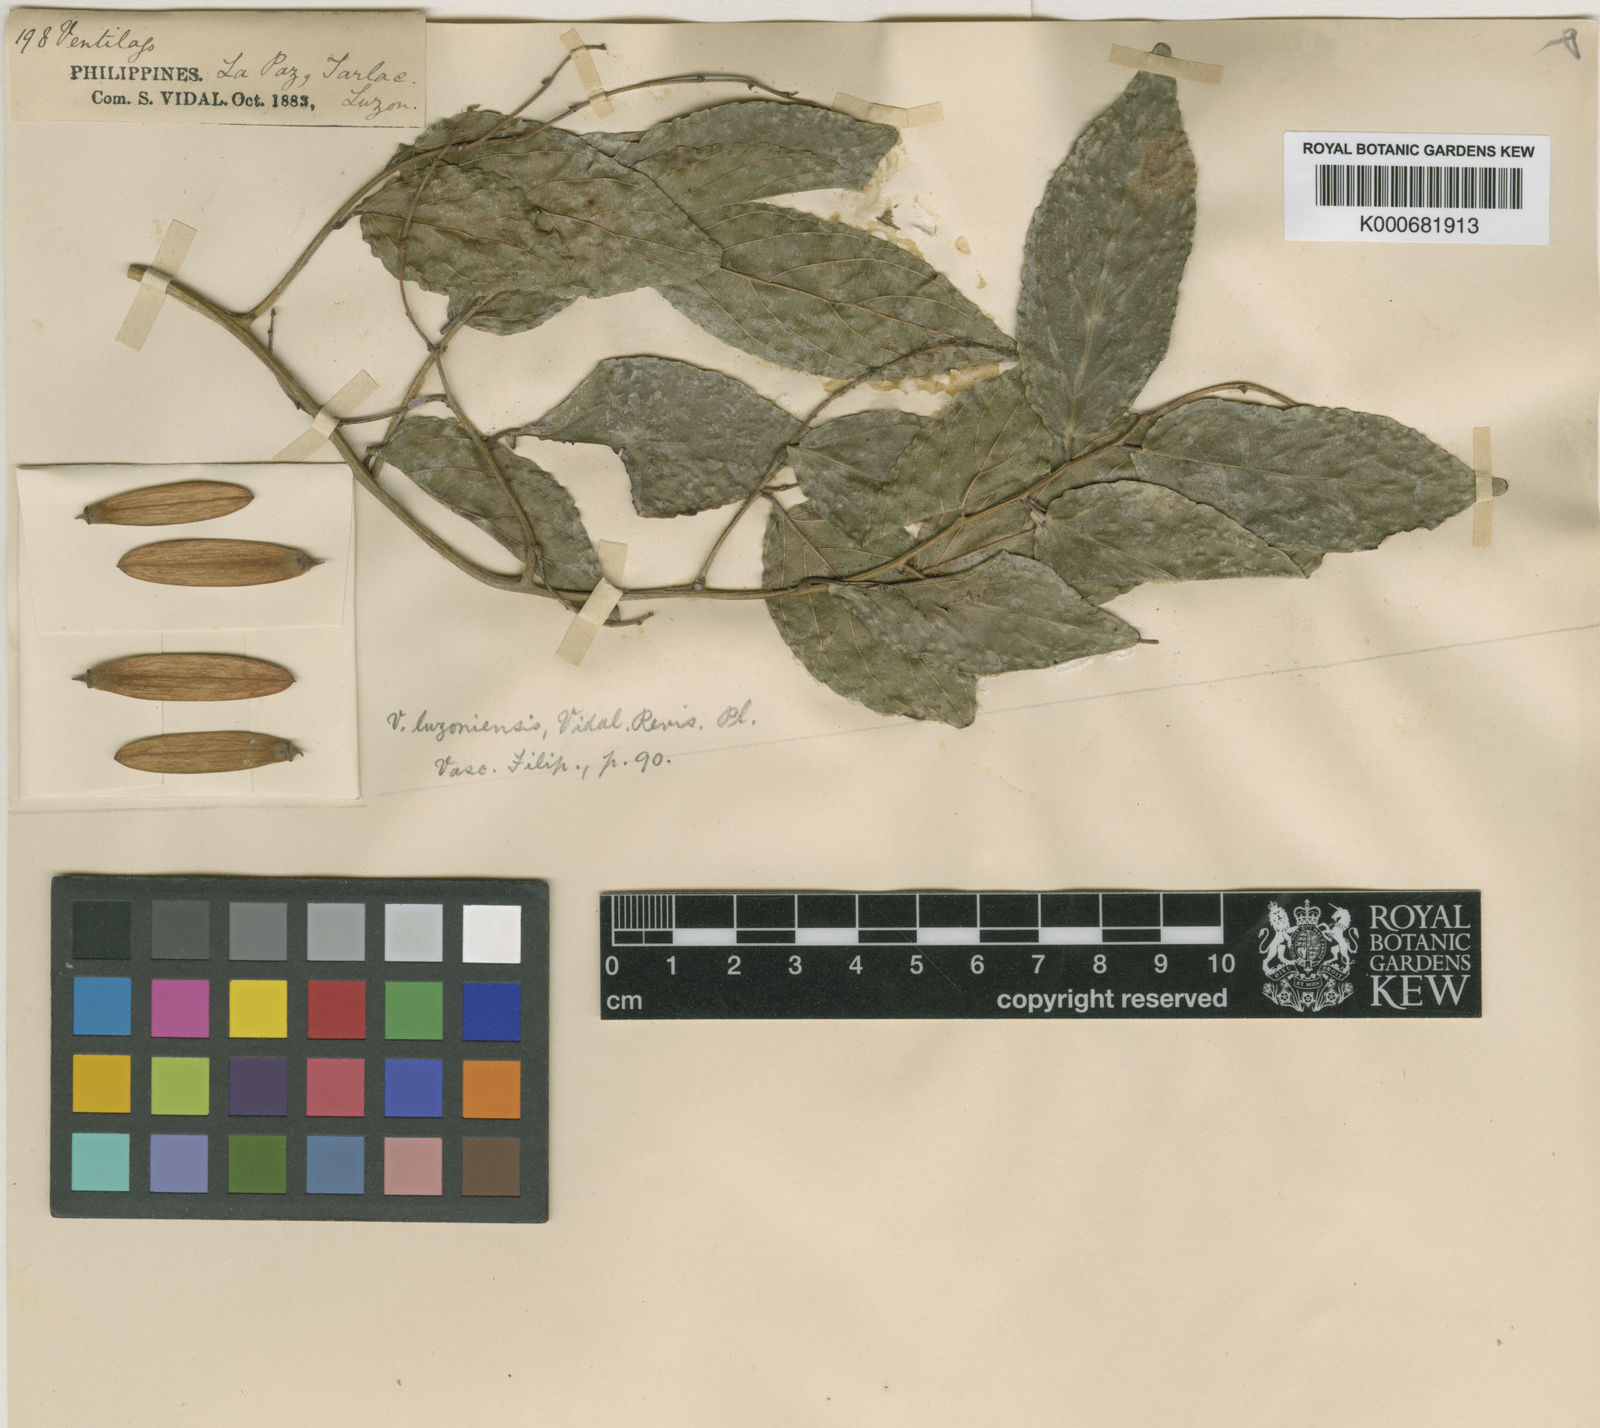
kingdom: Plantae
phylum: Tracheophyta
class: Magnoliopsida
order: Rosales
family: Rhamnaceae
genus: Smythea
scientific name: Smythea oblongifolia
